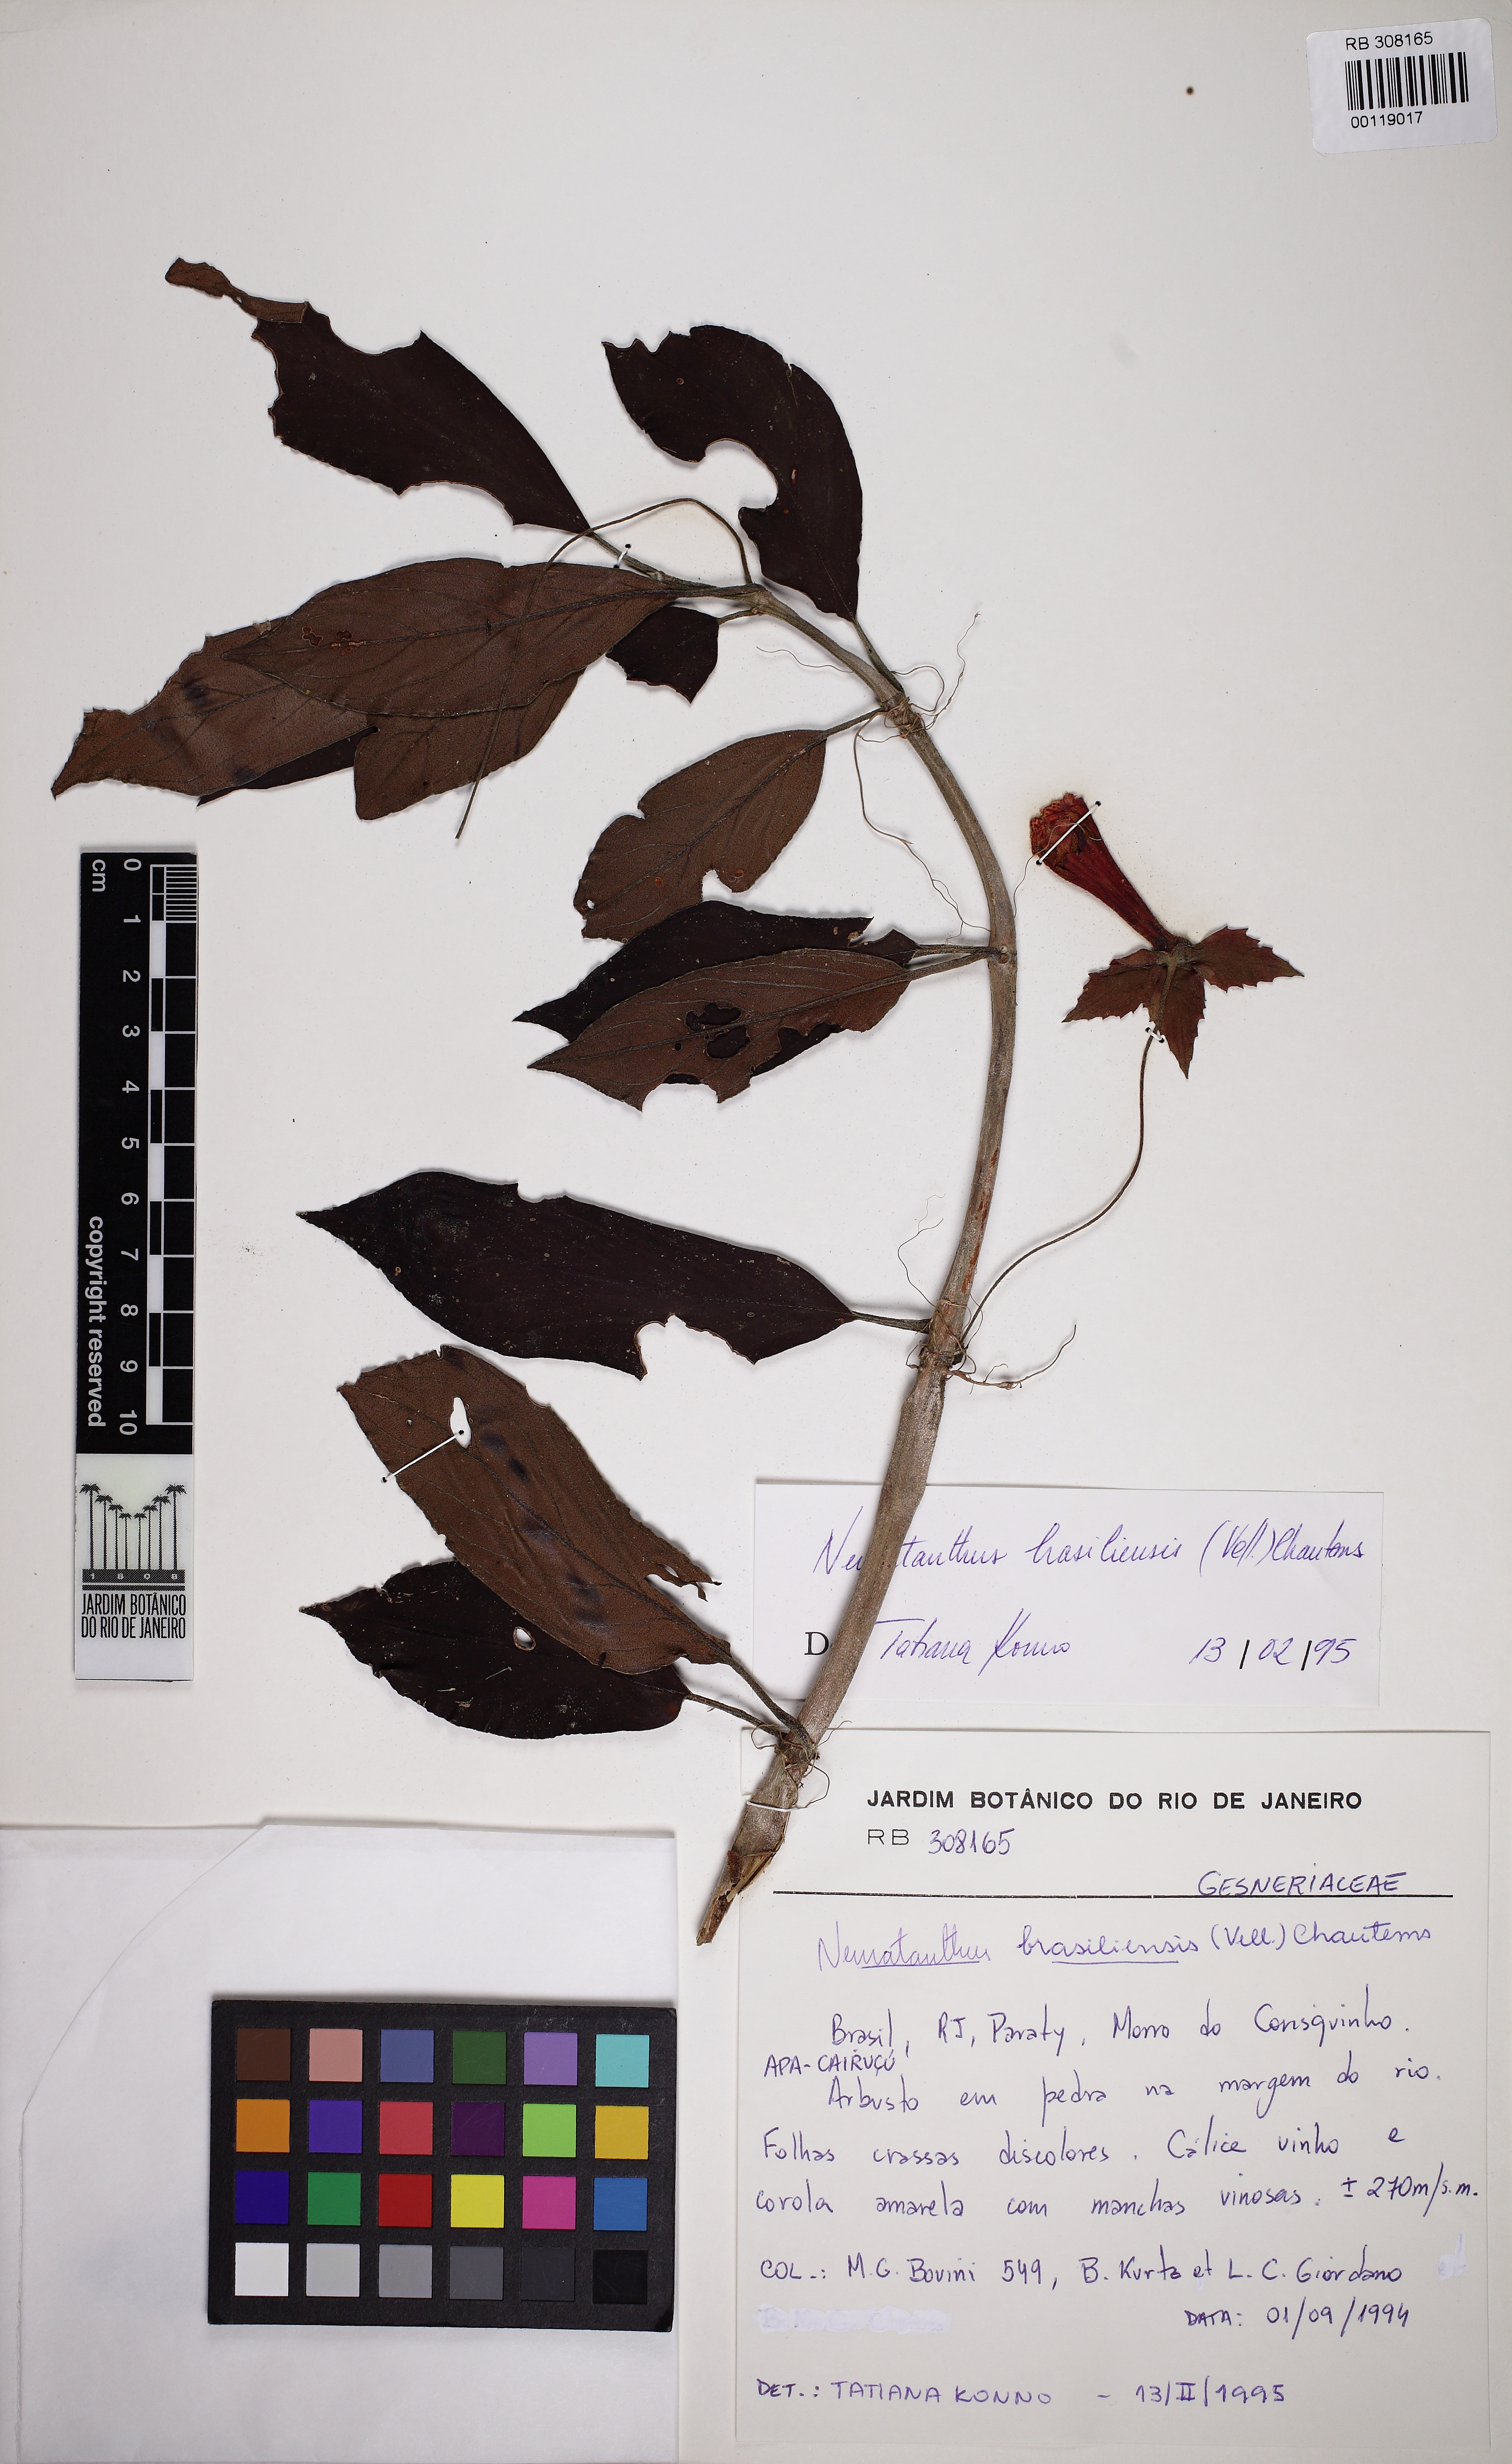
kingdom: Plantae
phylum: Tracheophyta
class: Magnoliopsida
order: Lamiales
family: Gesneriaceae
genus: Nematanthus
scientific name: Nematanthus brasiliensis
